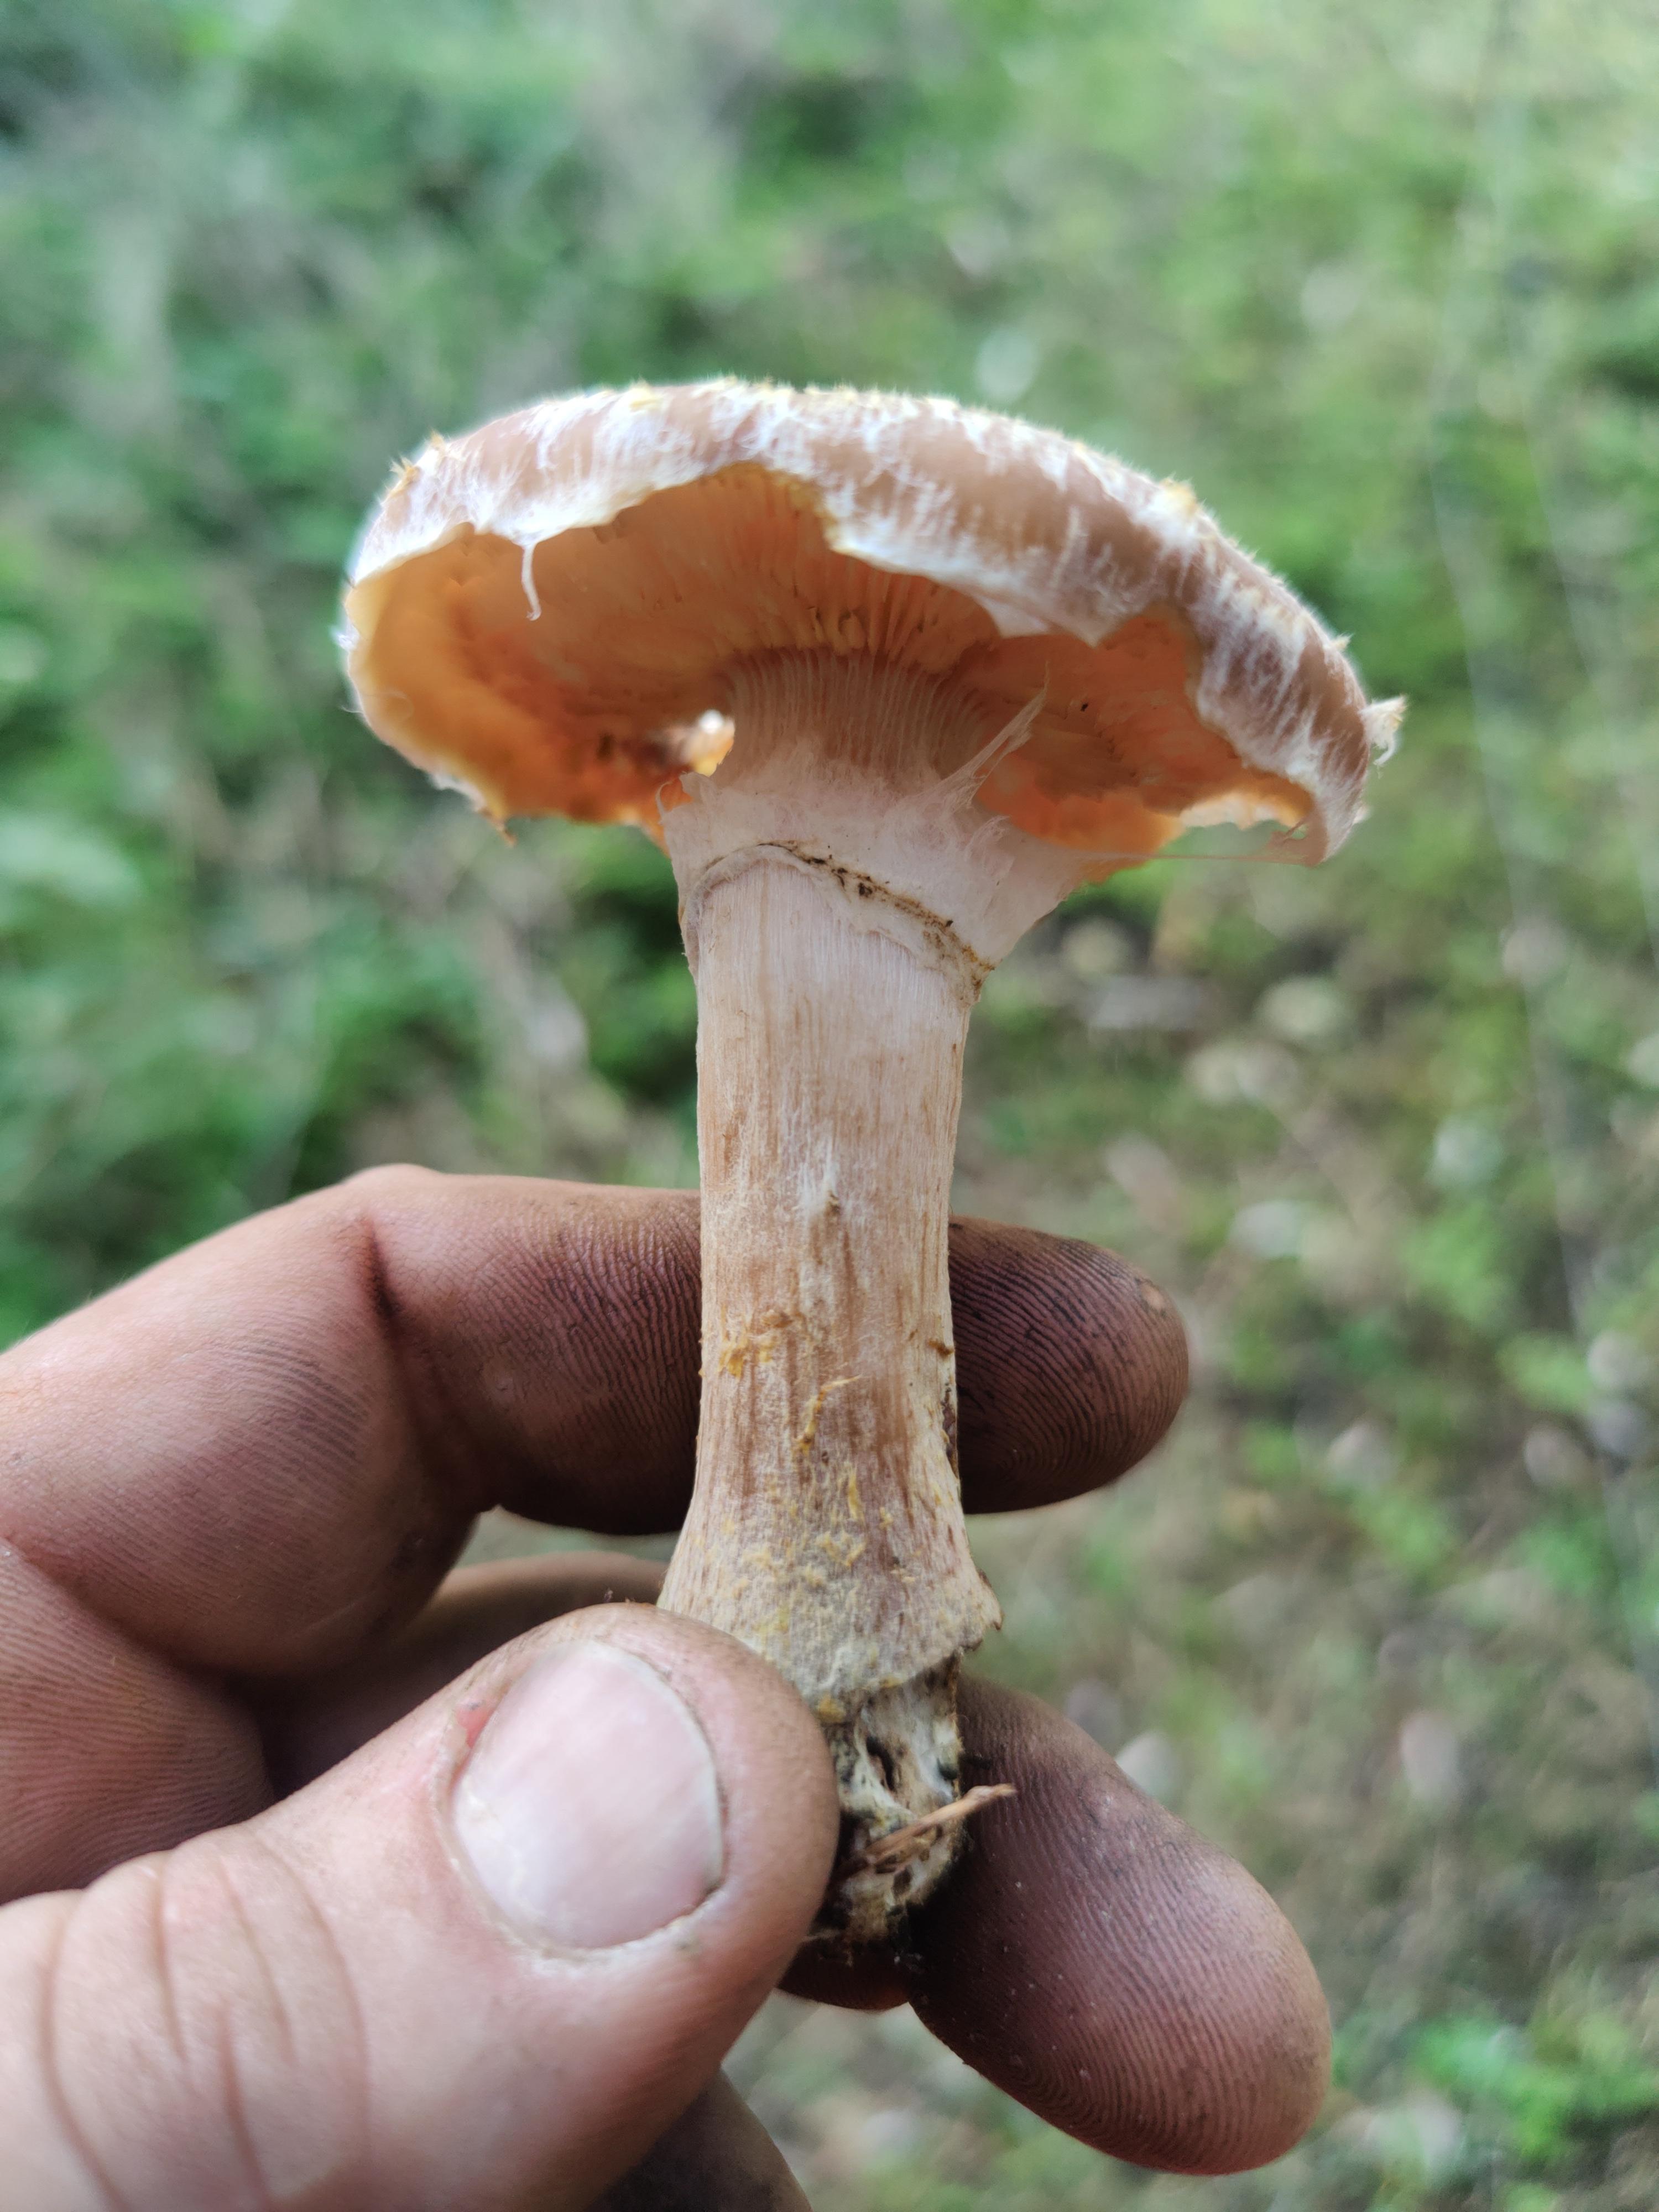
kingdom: Fungi
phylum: Basidiomycota
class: Agaricomycetes
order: Agaricales
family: Physalacriaceae
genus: Armillaria
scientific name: Armillaria lutea
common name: køllestokket honningsvamp
